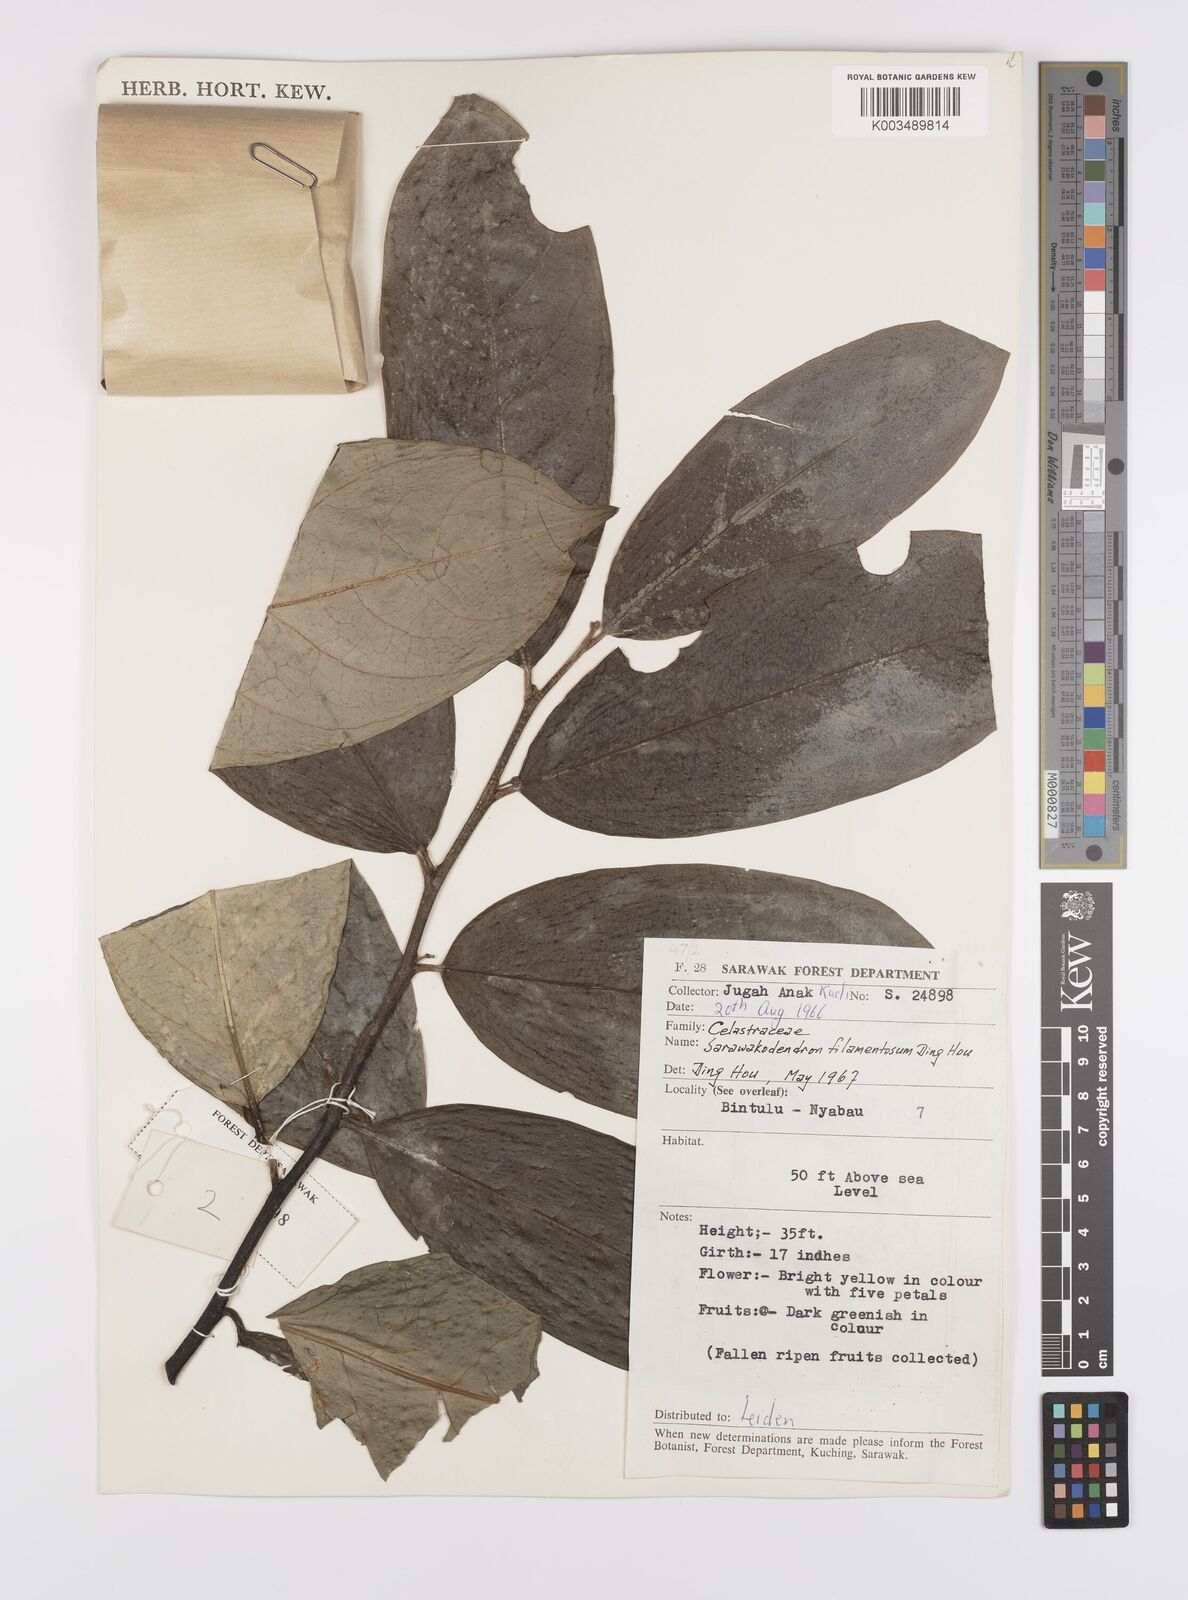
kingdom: Plantae
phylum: Tracheophyta
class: Magnoliopsida
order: Celastrales
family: Celastraceae
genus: Sarawakodendron
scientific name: Sarawakodendron filamentosum
